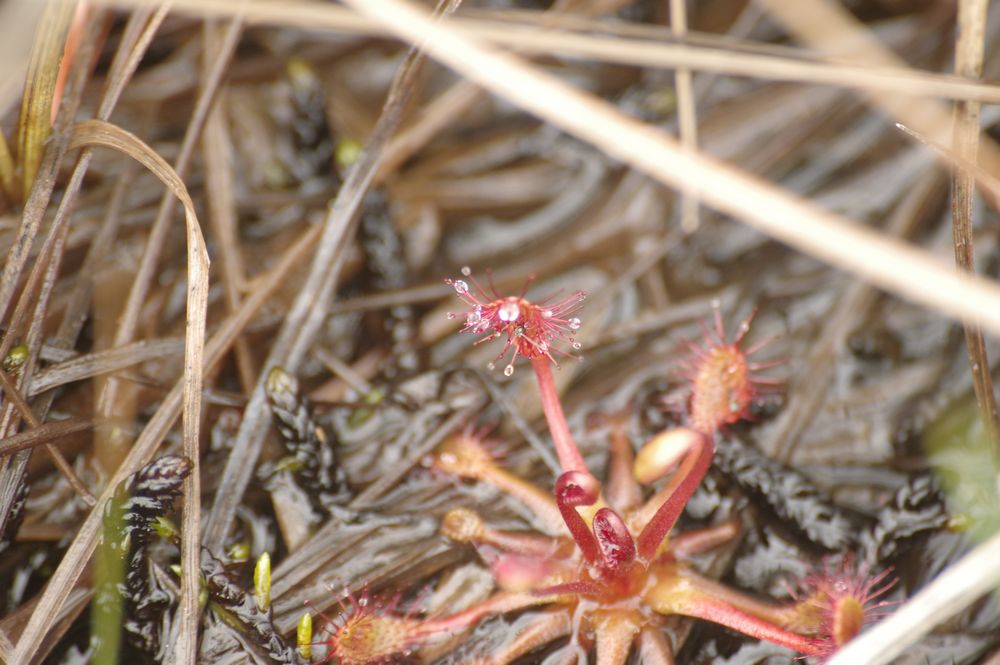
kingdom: Plantae
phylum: Tracheophyta
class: Magnoliopsida
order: Caryophyllales
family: Droseraceae
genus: Drosera
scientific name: Drosera
